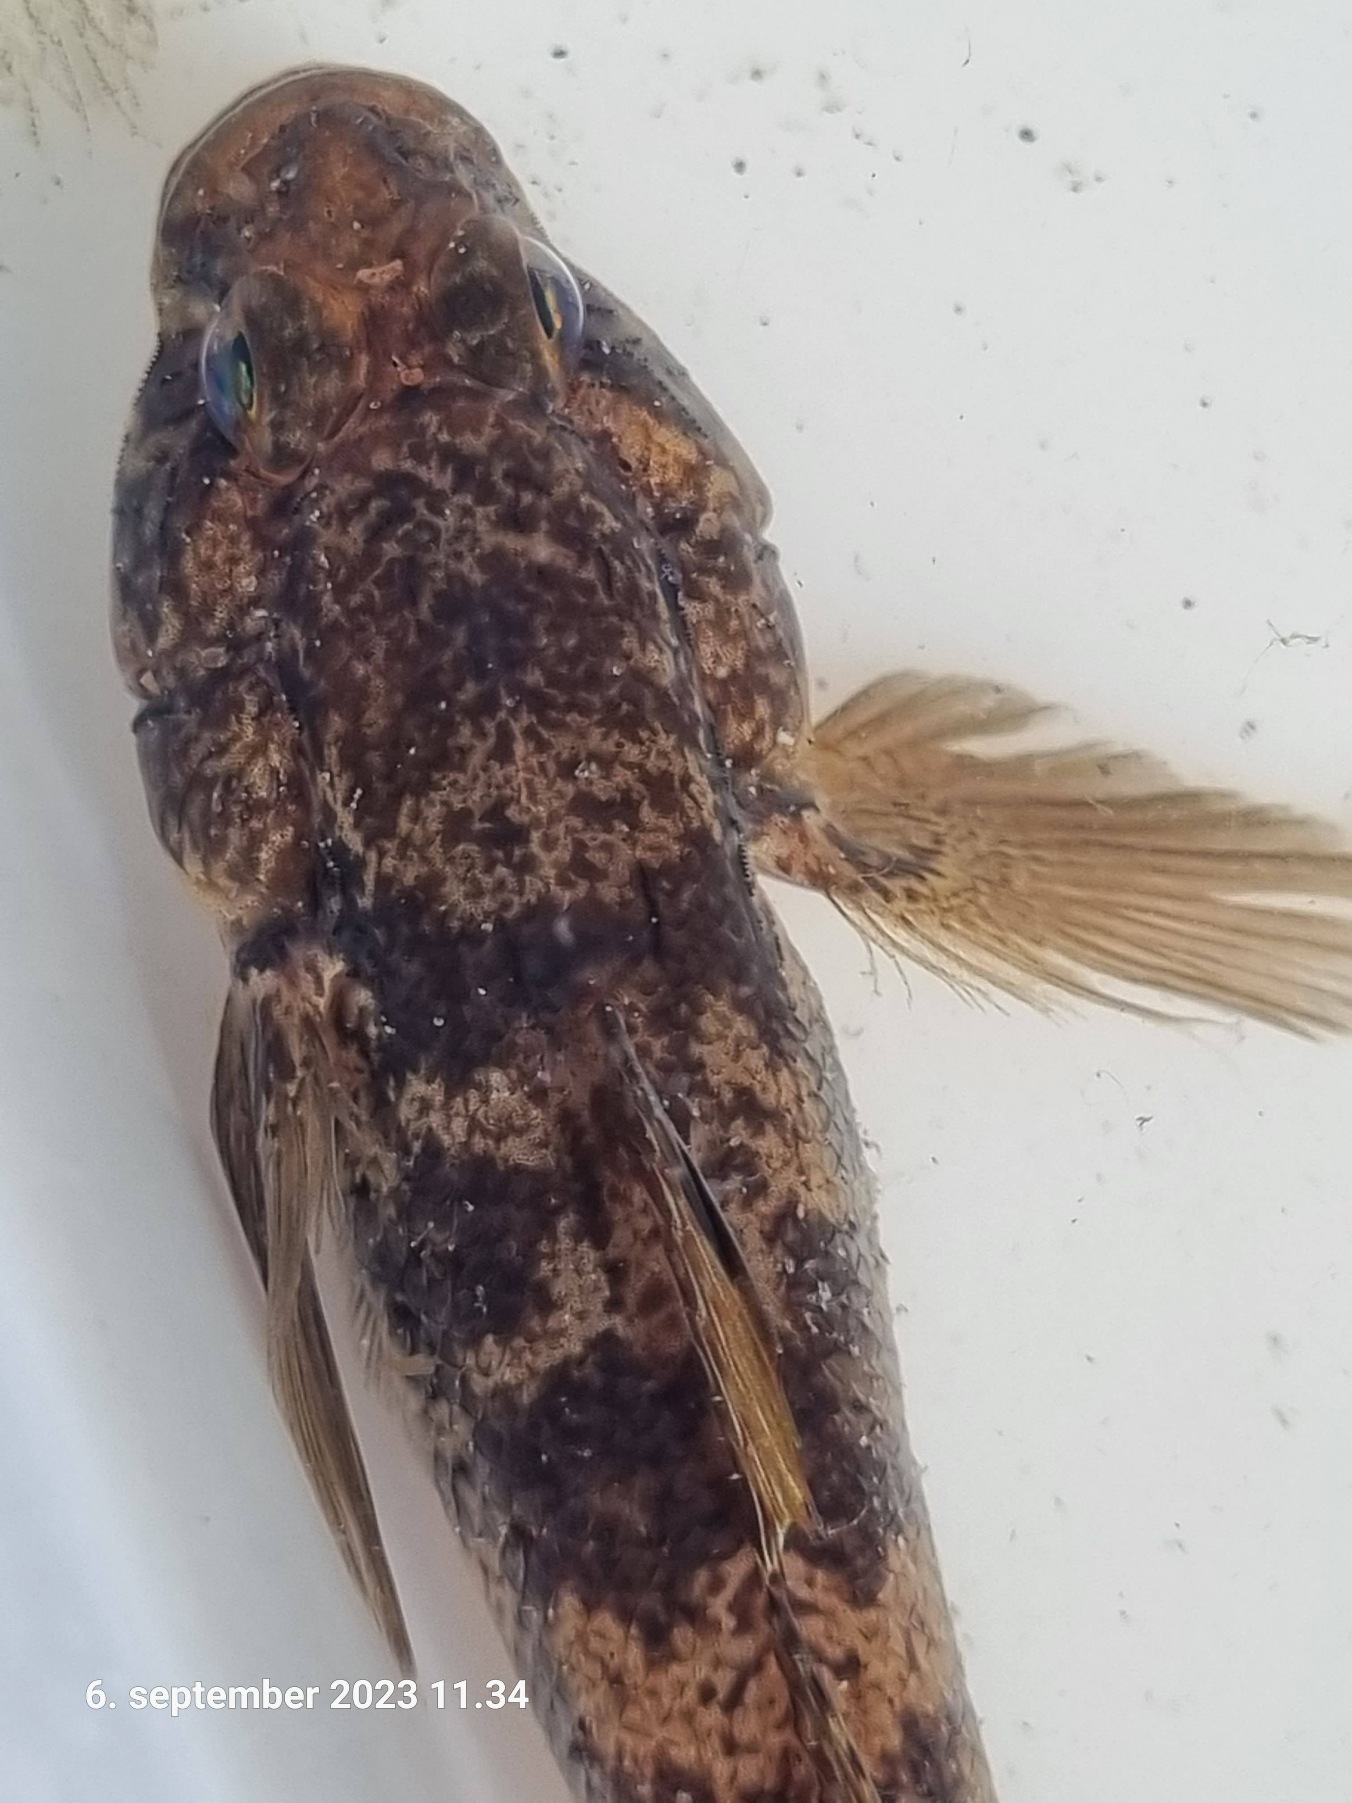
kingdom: Animalia
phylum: Chordata
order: Perciformes
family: Gobiidae
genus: Gobius
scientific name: Gobius niger
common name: Sortkutling
